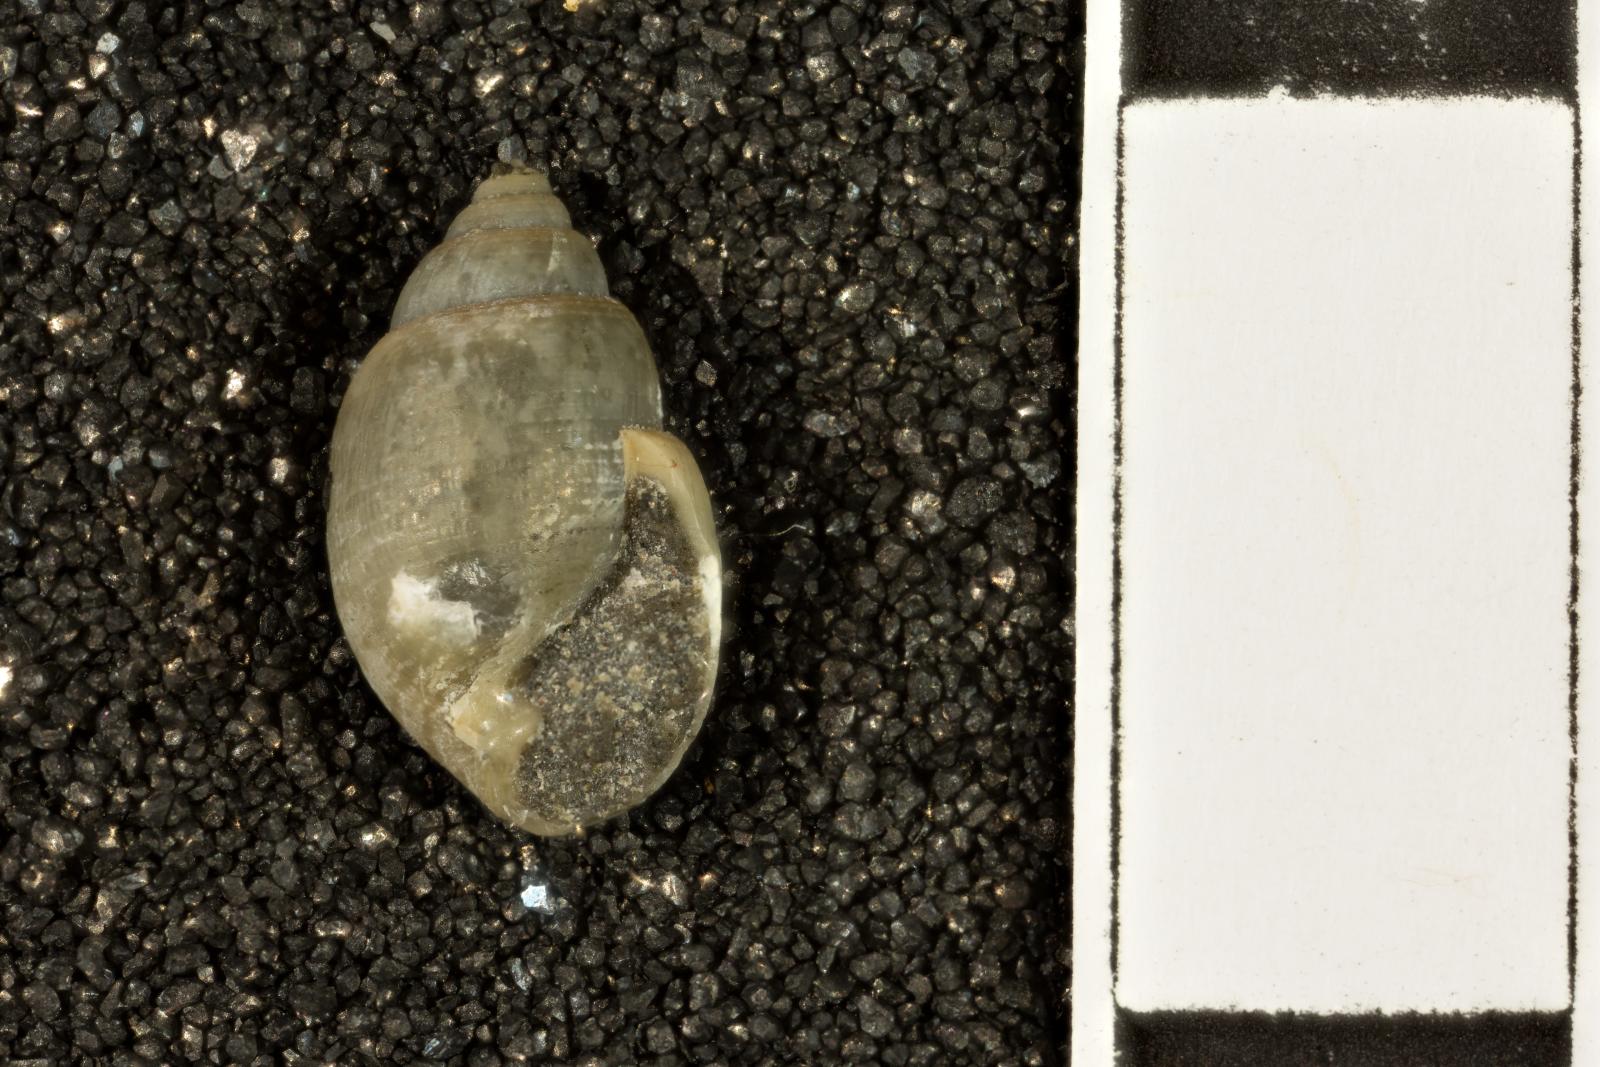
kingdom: Animalia
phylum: Mollusca
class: Gastropoda
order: Cephalaspidea
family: Acteonidae
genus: Acteon
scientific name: Acteon politus
